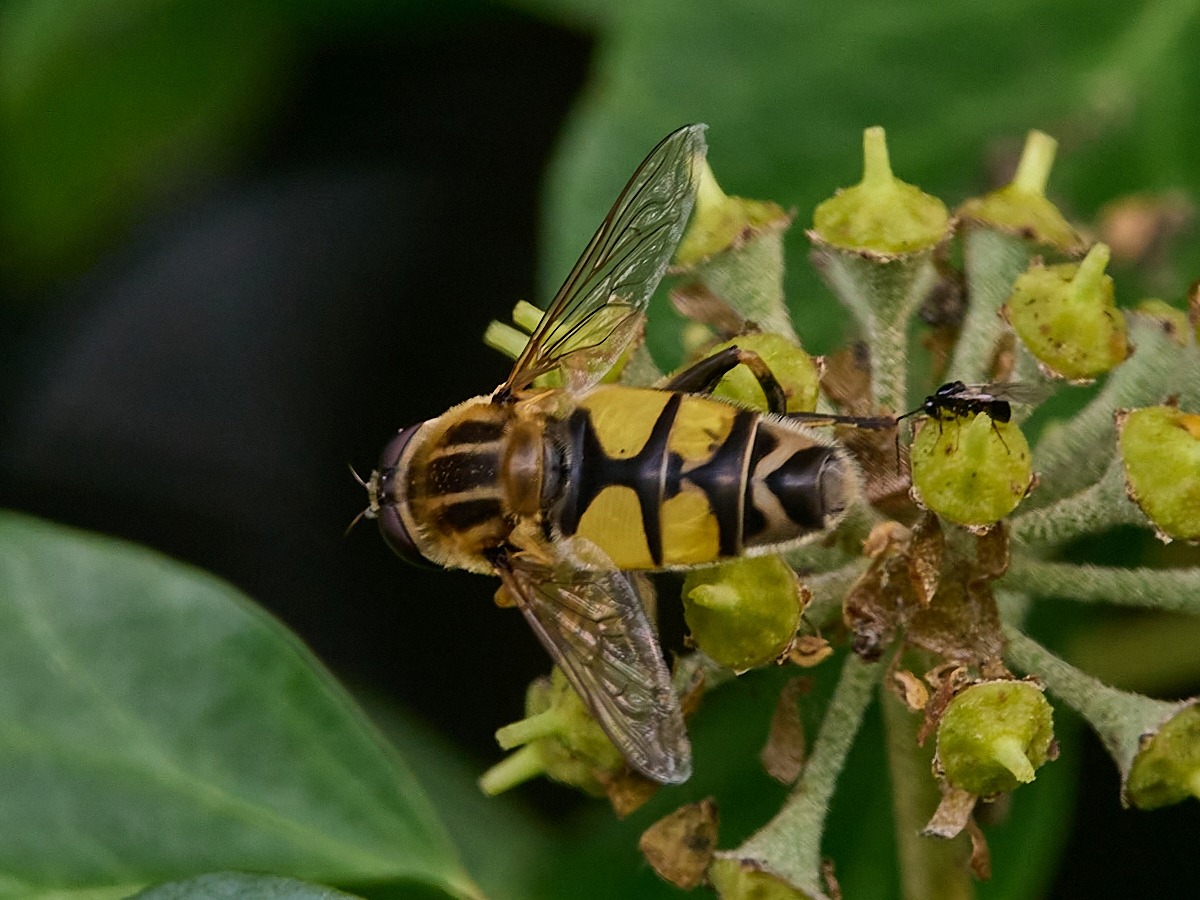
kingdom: Animalia
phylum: Arthropoda
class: Insecta
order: Diptera
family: Syrphidae
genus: Helophilus
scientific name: Helophilus trivittatus
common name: Trebåndet sumpsvirreflue
